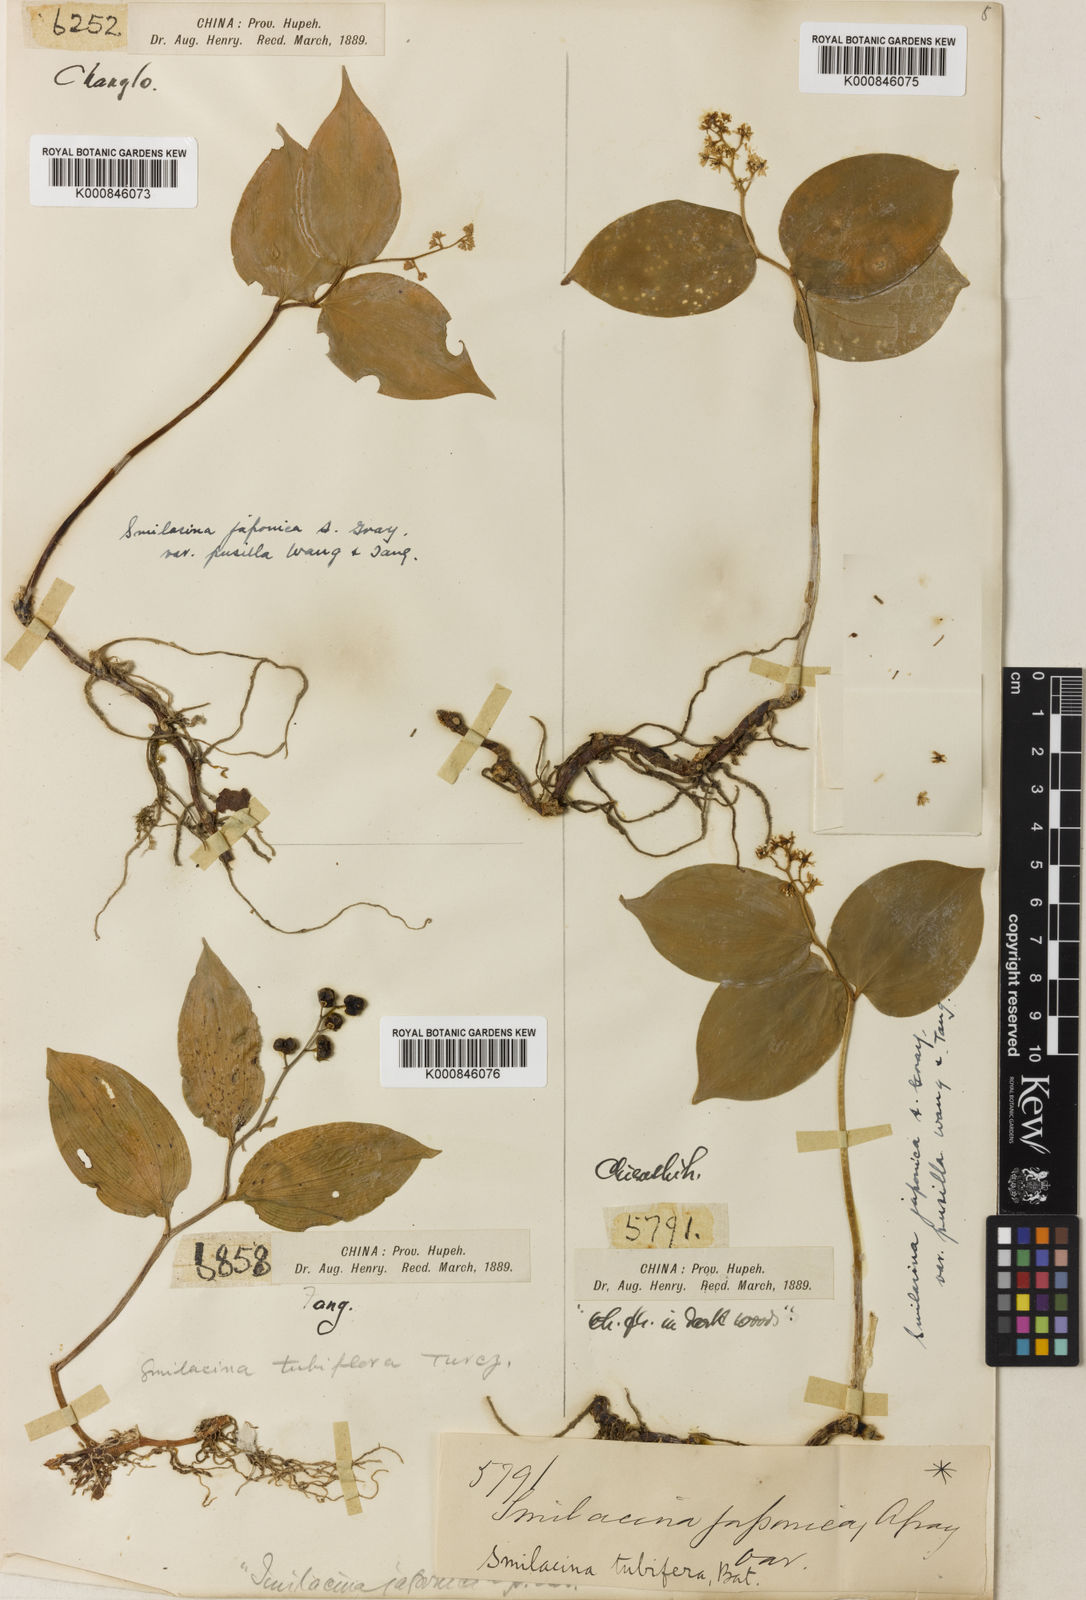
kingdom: Plantae
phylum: Tracheophyta
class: Liliopsida
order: Asparagales
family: Asparagaceae
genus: Maianthemum
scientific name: Maianthemum japonicum
